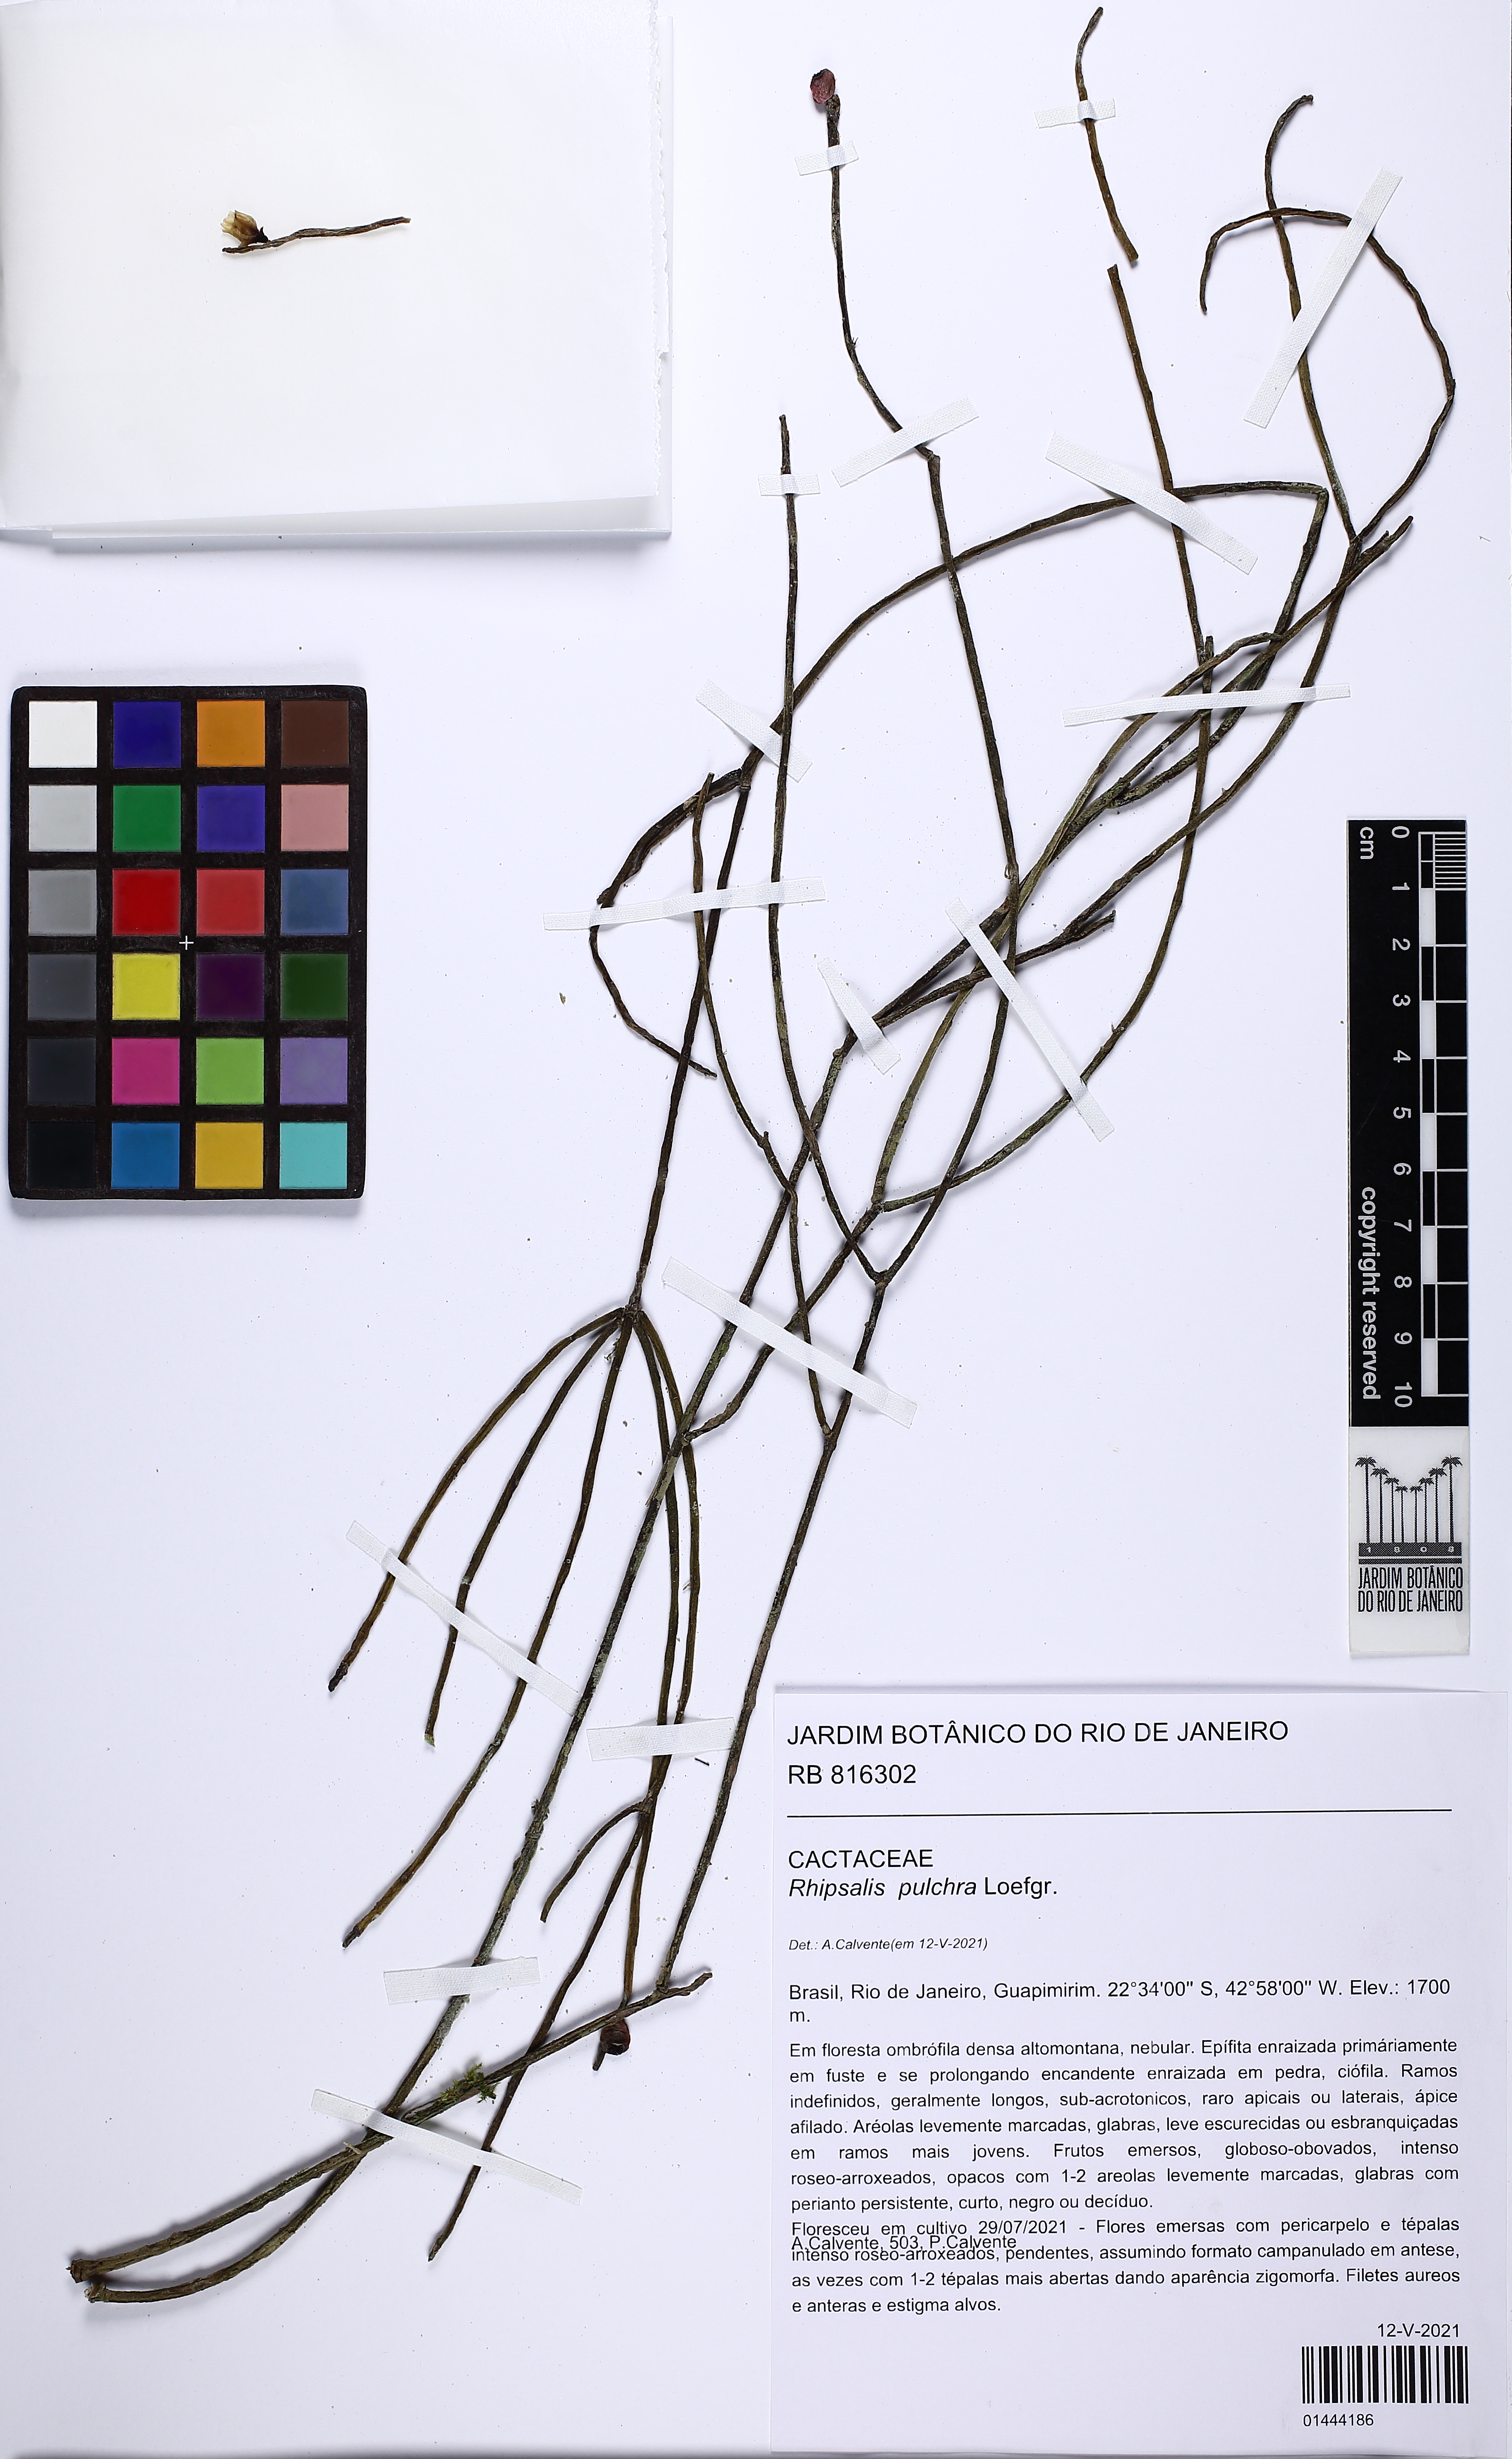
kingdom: Plantae
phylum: Tracheophyta
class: Magnoliopsida
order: Caryophyllales
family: Cactaceae
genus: Rhipsalis
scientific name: Rhipsalis pulchra
